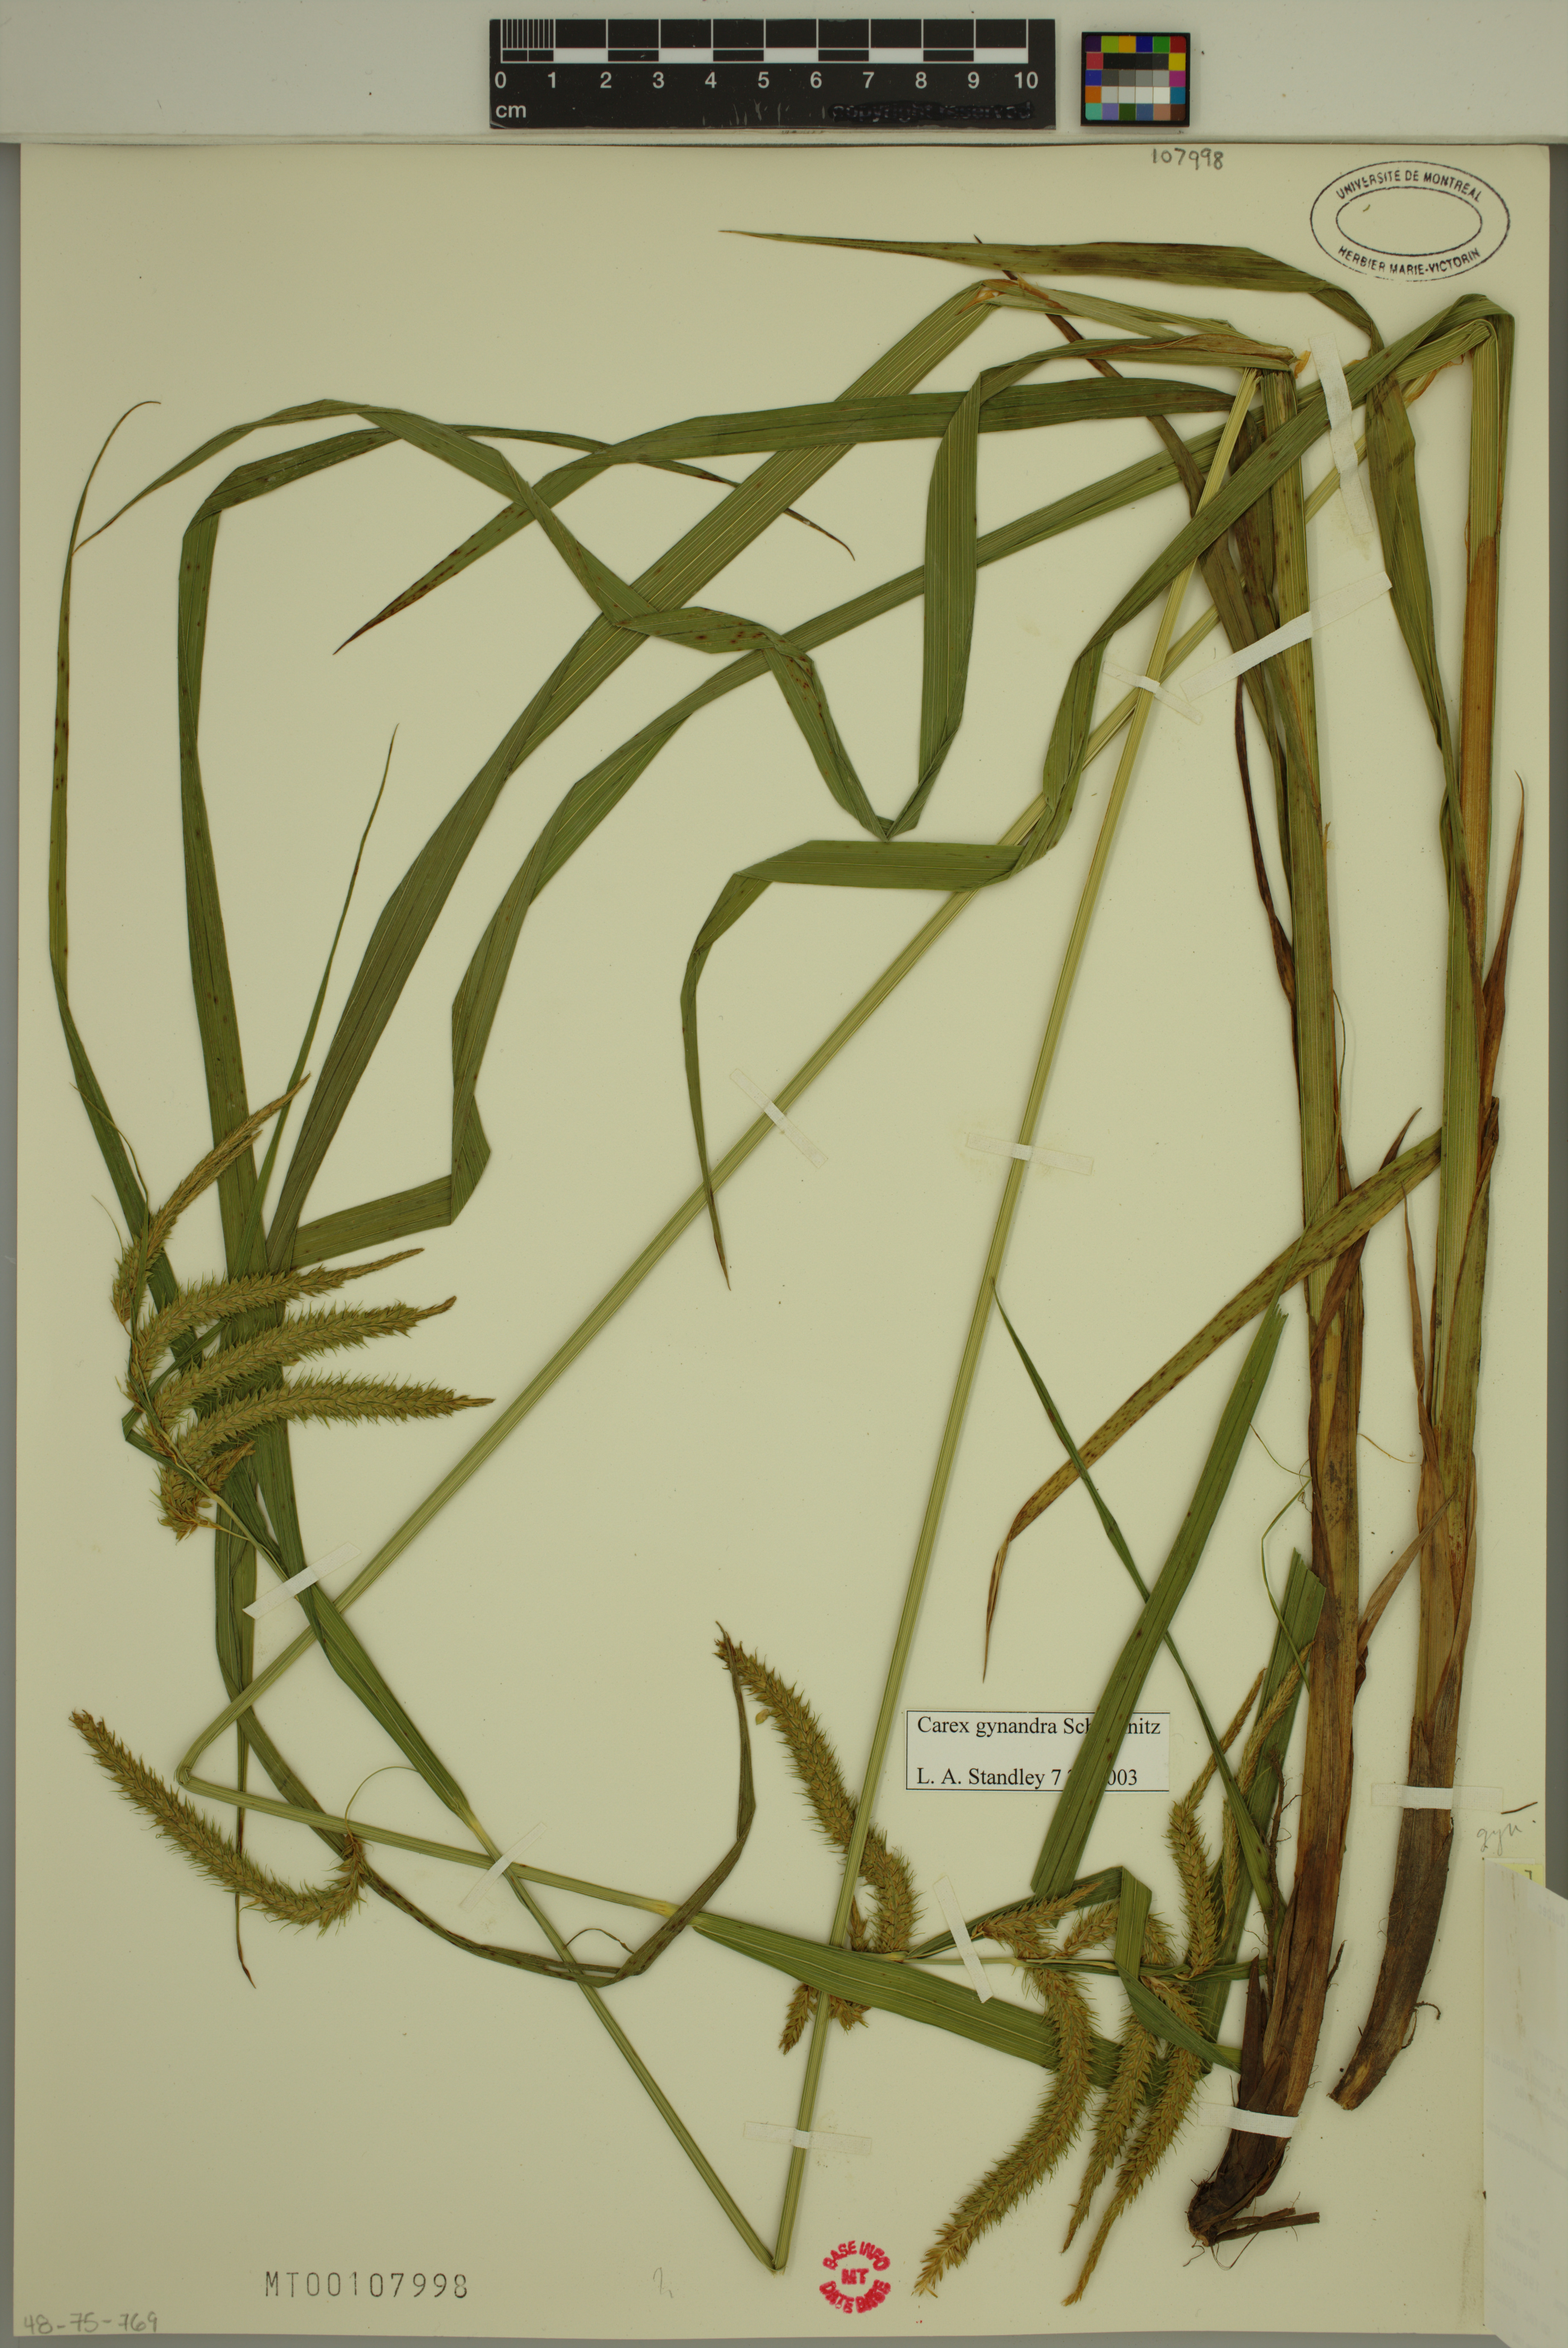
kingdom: Plantae
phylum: Tracheophyta
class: Liliopsida
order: Poales
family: Cyperaceae
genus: Carex
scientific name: Carex gynandra
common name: Nodding sedge
